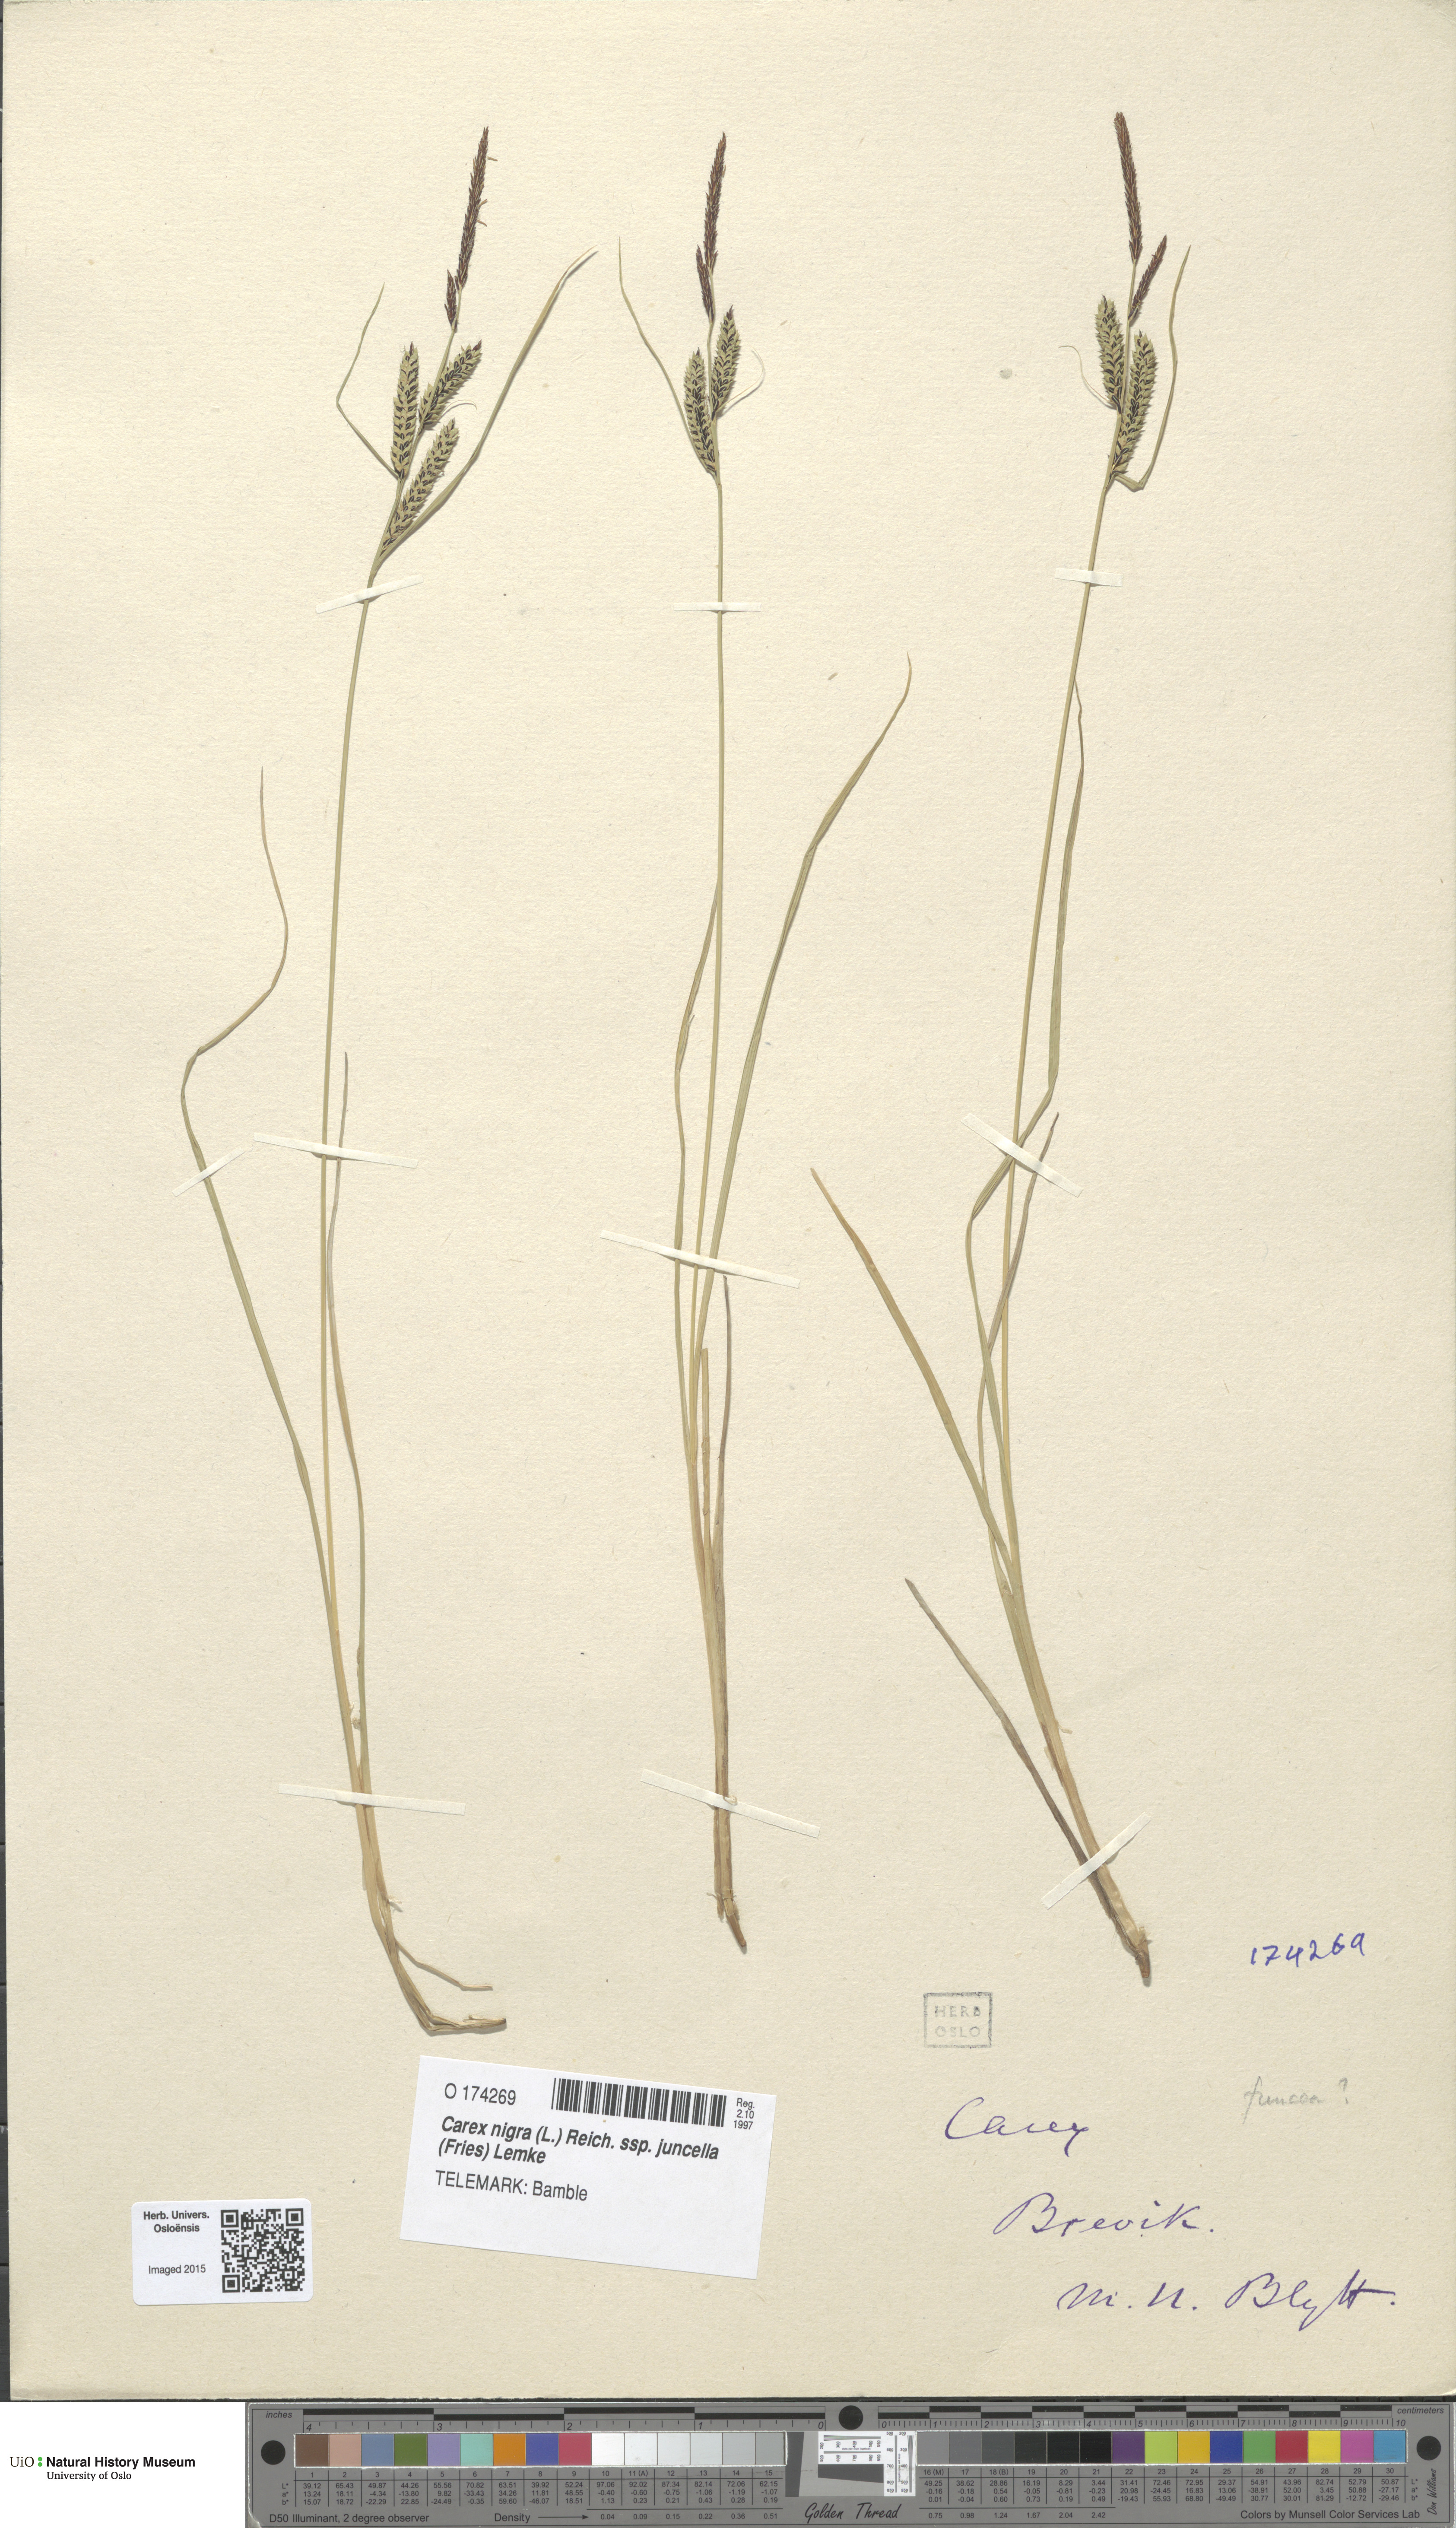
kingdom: Plantae
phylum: Tracheophyta
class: Liliopsida
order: Poales
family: Cyperaceae
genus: Carex
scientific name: Carex nigra
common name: Common sedge
